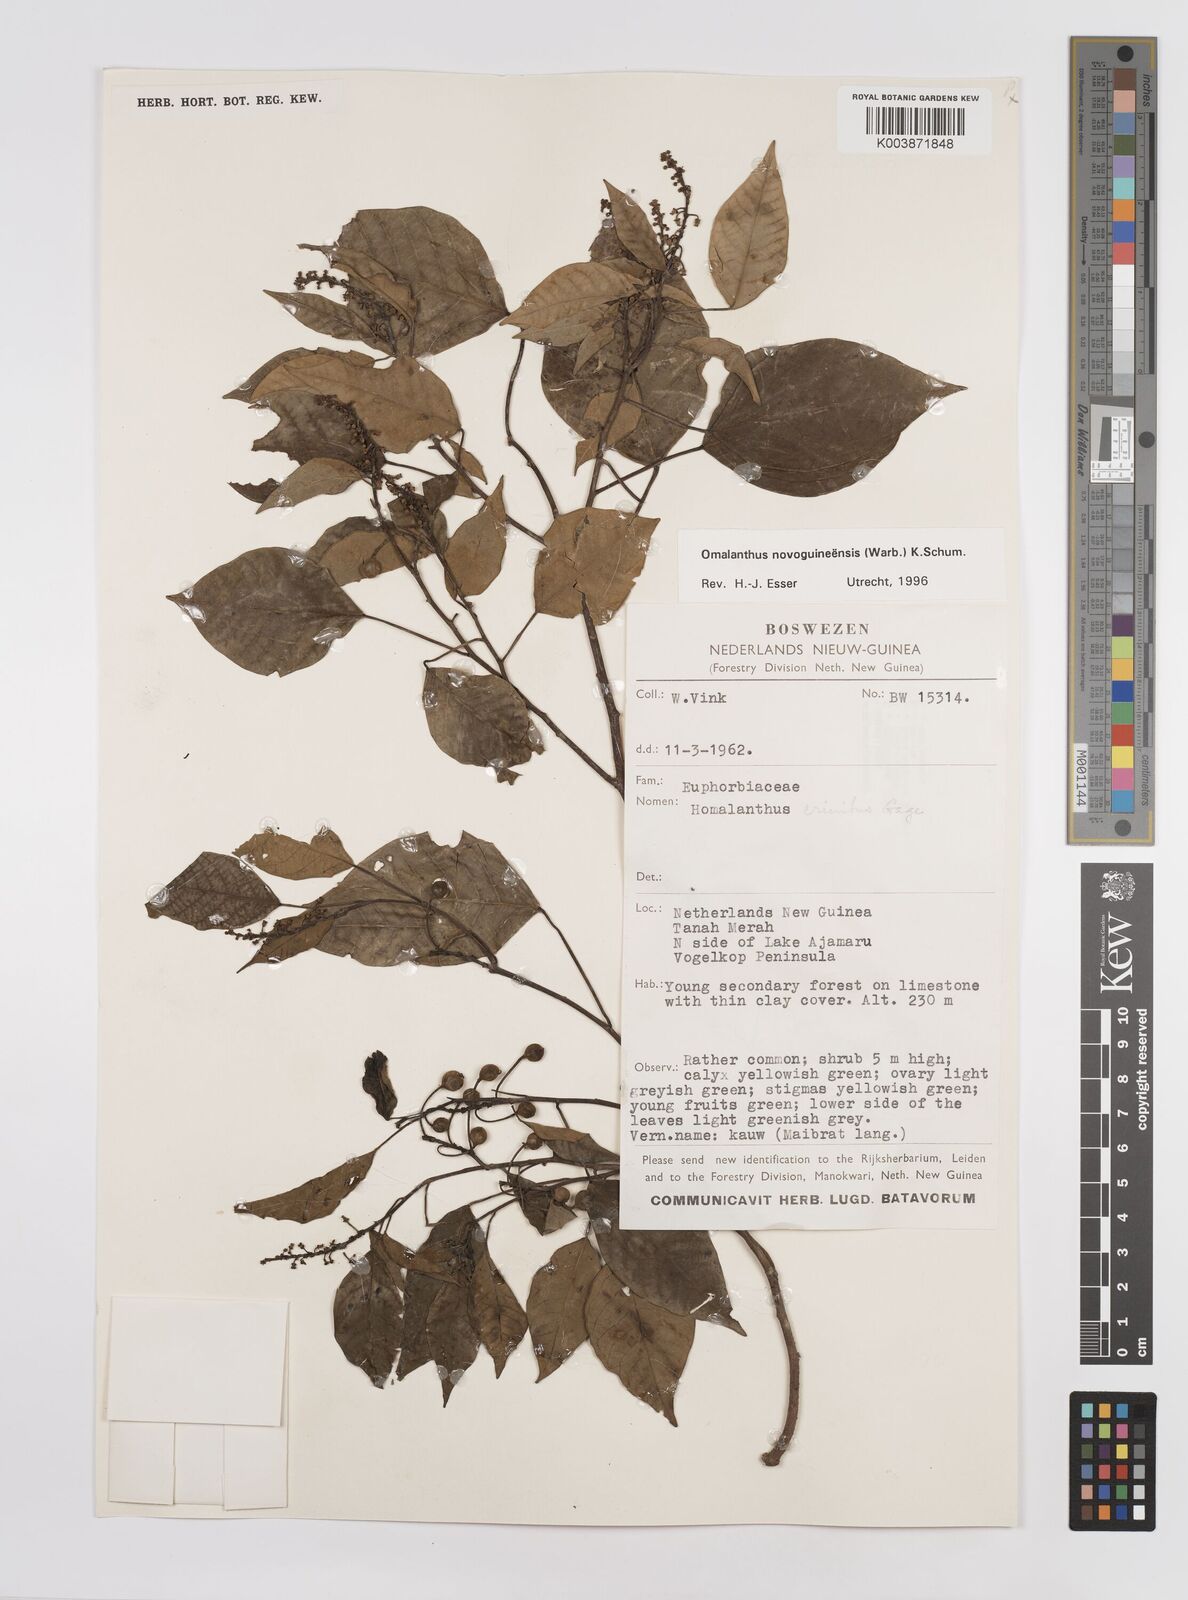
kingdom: Plantae
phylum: Tracheophyta
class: Magnoliopsida
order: Malpighiales
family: Euphorbiaceae
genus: Homalanthus
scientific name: Homalanthus novoguineensis
